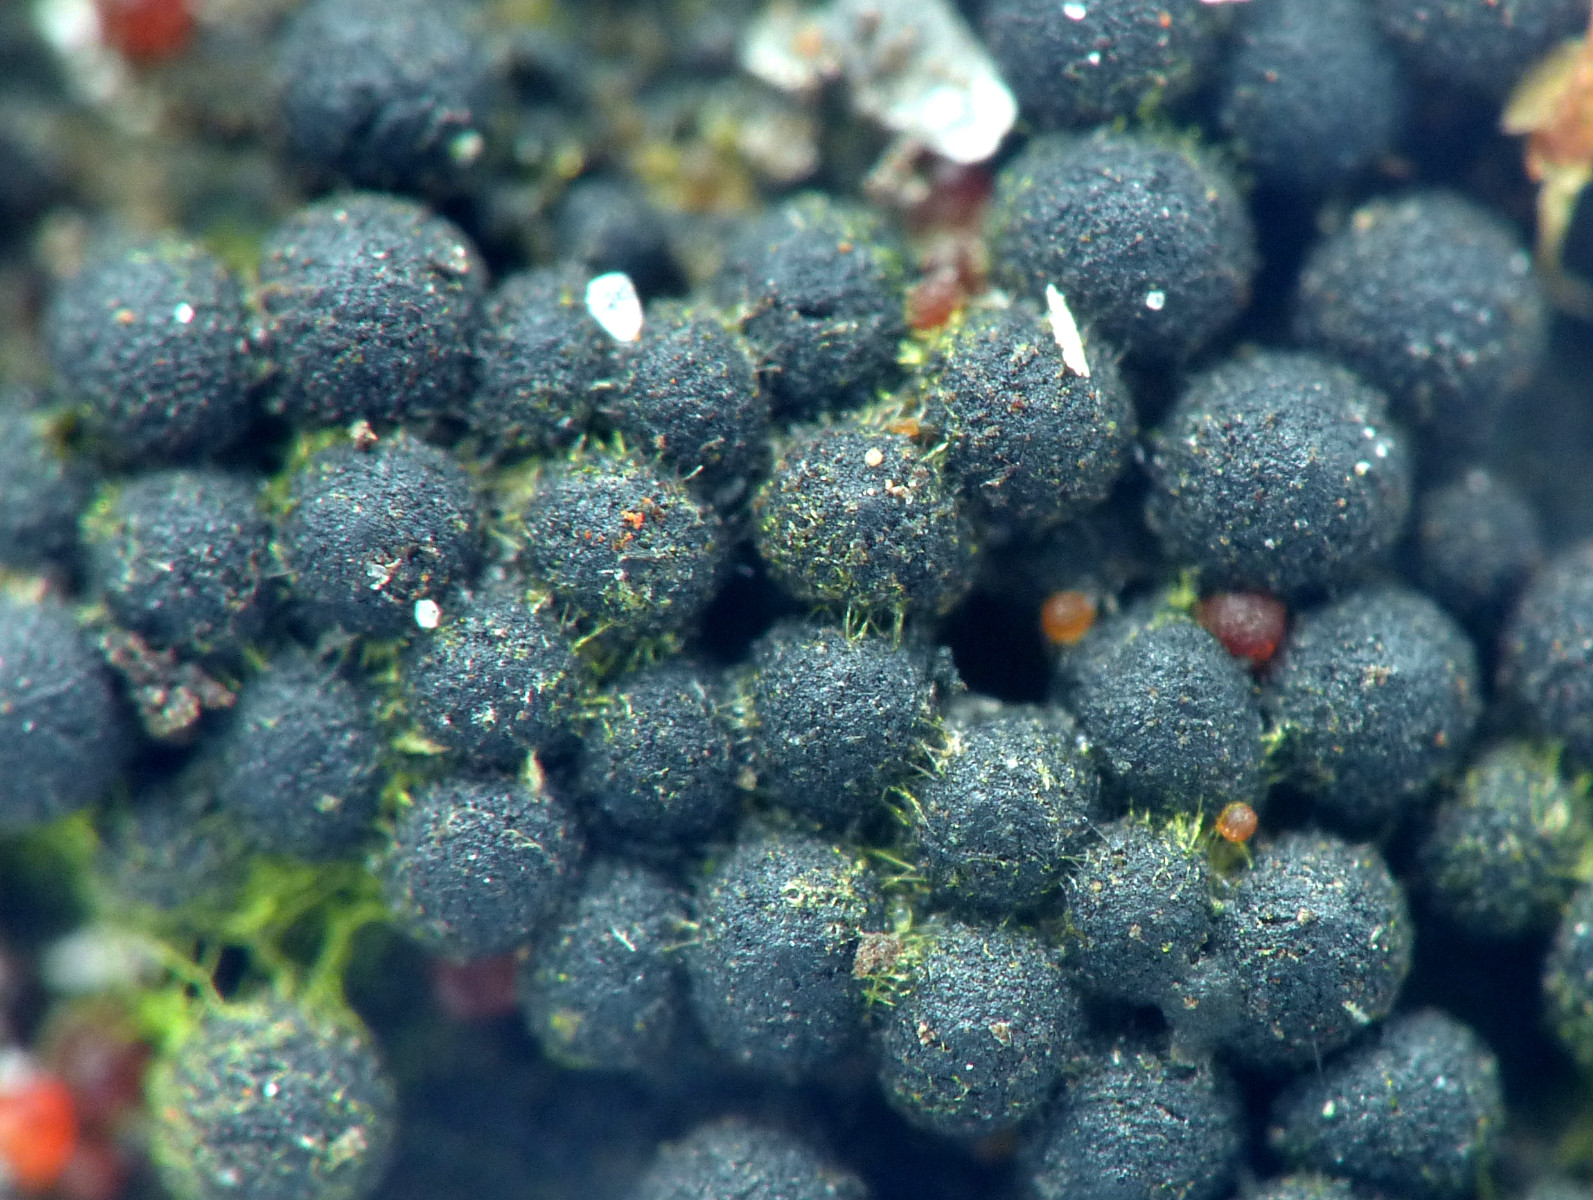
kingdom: Fungi
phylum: Ascomycota
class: Sordariomycetes
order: Sordariales
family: Helminthosphaeriaceae
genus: Ruzenia
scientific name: Ruzenia spermoides
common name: glat børstekerne
